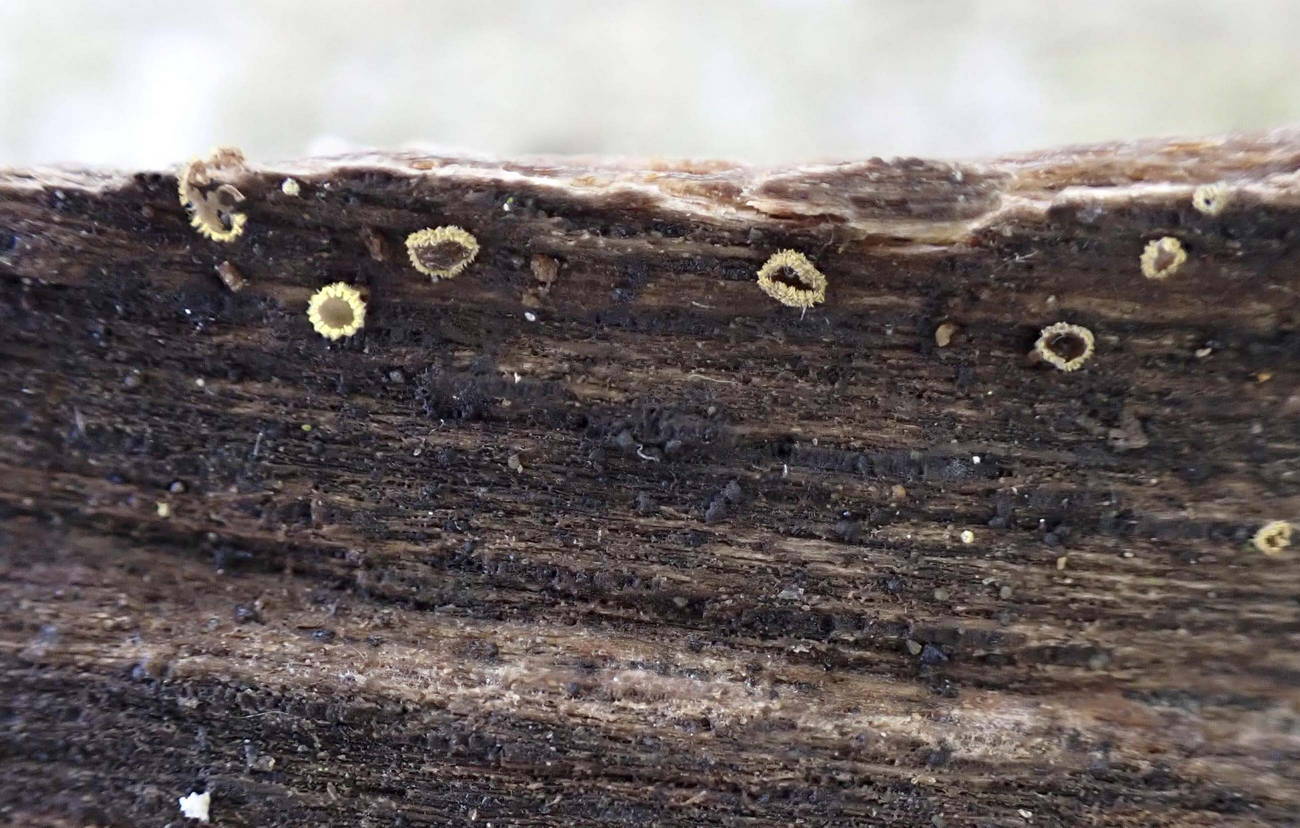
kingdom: Fungi
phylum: Ascomycota
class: Leotiomycetes
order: Helotiales
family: Lachnaceae
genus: Trichopeziza
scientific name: Trichopeziza subsulphurea
